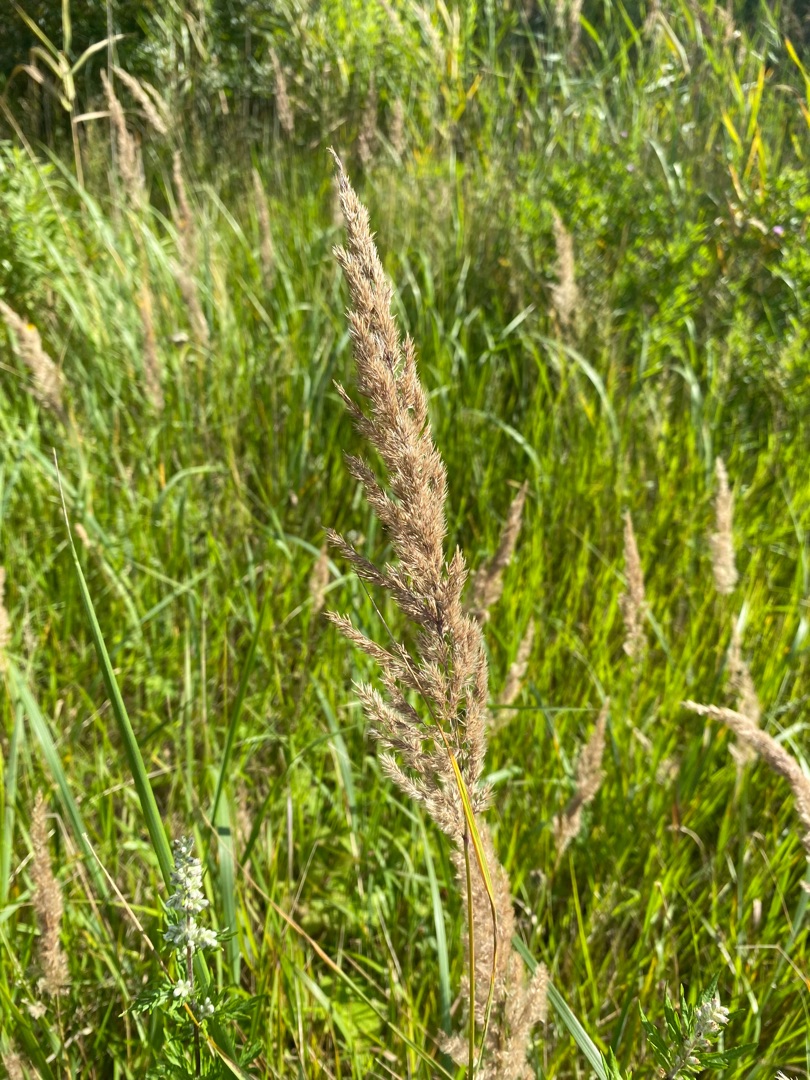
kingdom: Plantae
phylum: Tracheophyta
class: Liliopsida
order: Poales
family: Poaceae
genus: Calamagrostis
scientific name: Calamagrostis epigejos
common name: Bjerg-rørhvene
